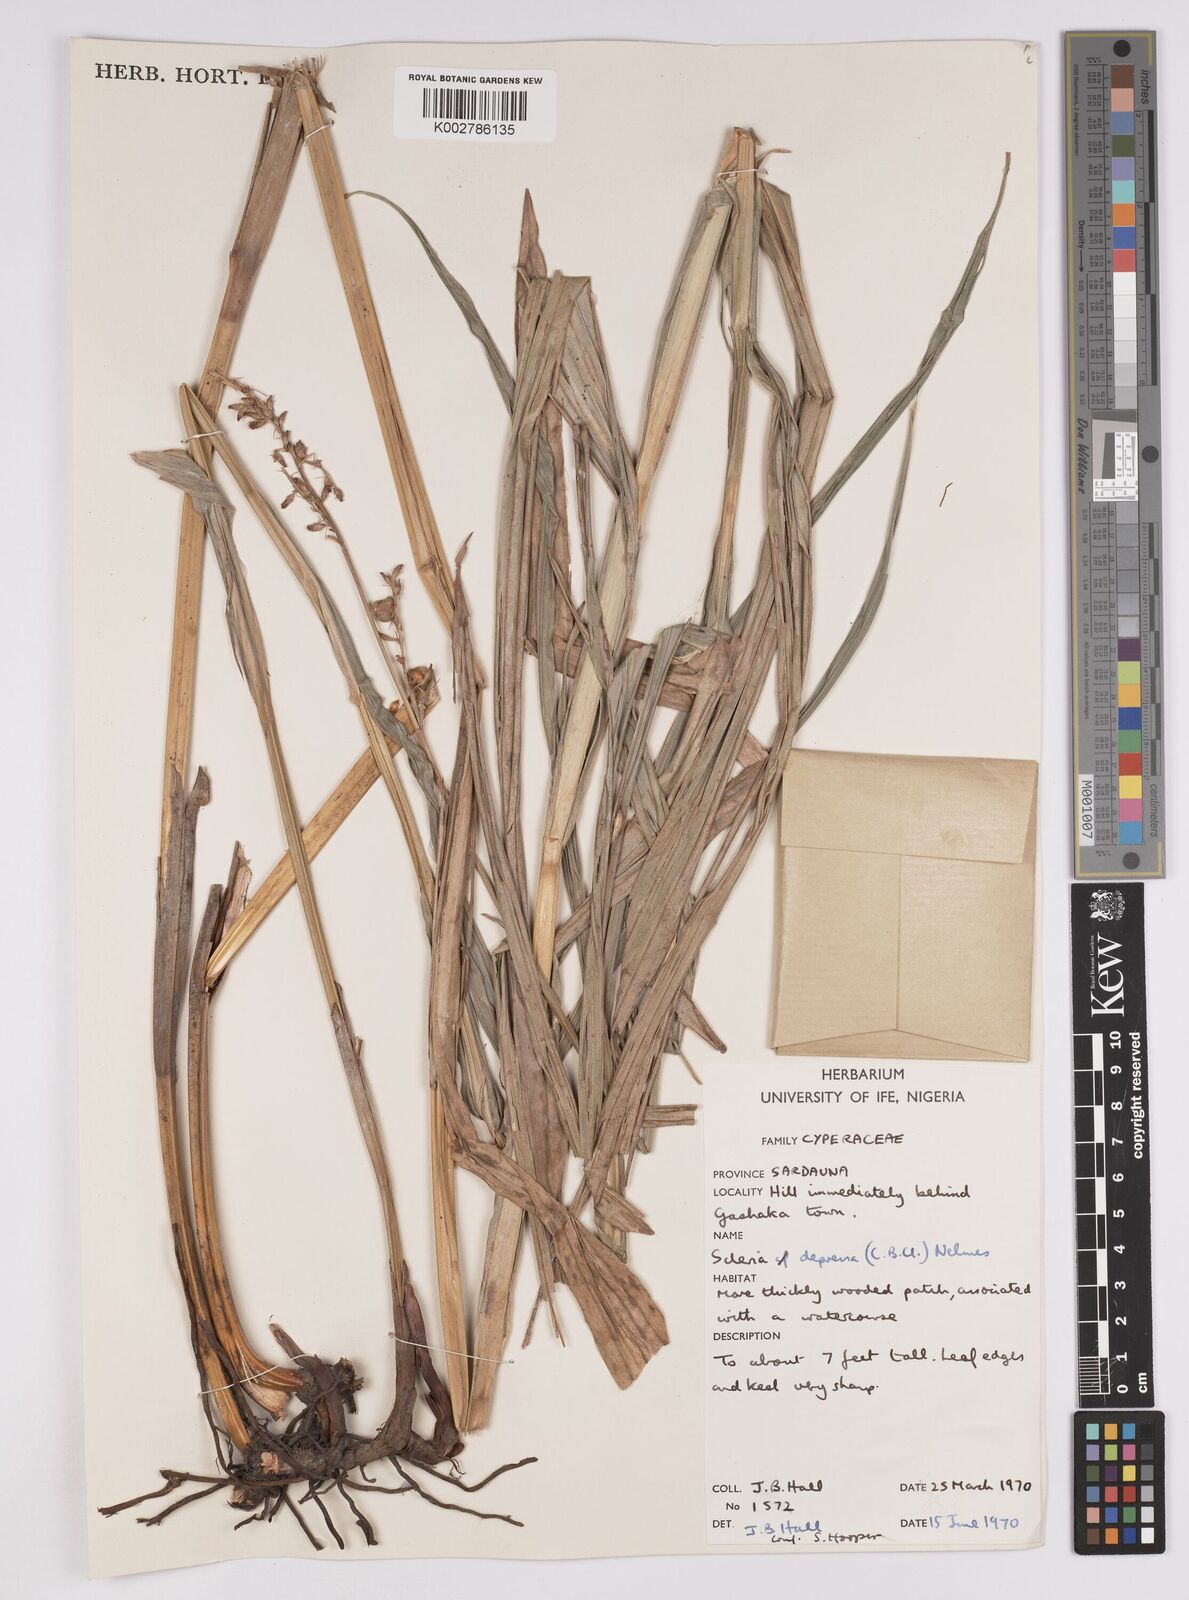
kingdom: Plantae
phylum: Tracheophyta
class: Liliopsida
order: Poales
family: Cyperaceae
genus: Scleria
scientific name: Scleria depressa
